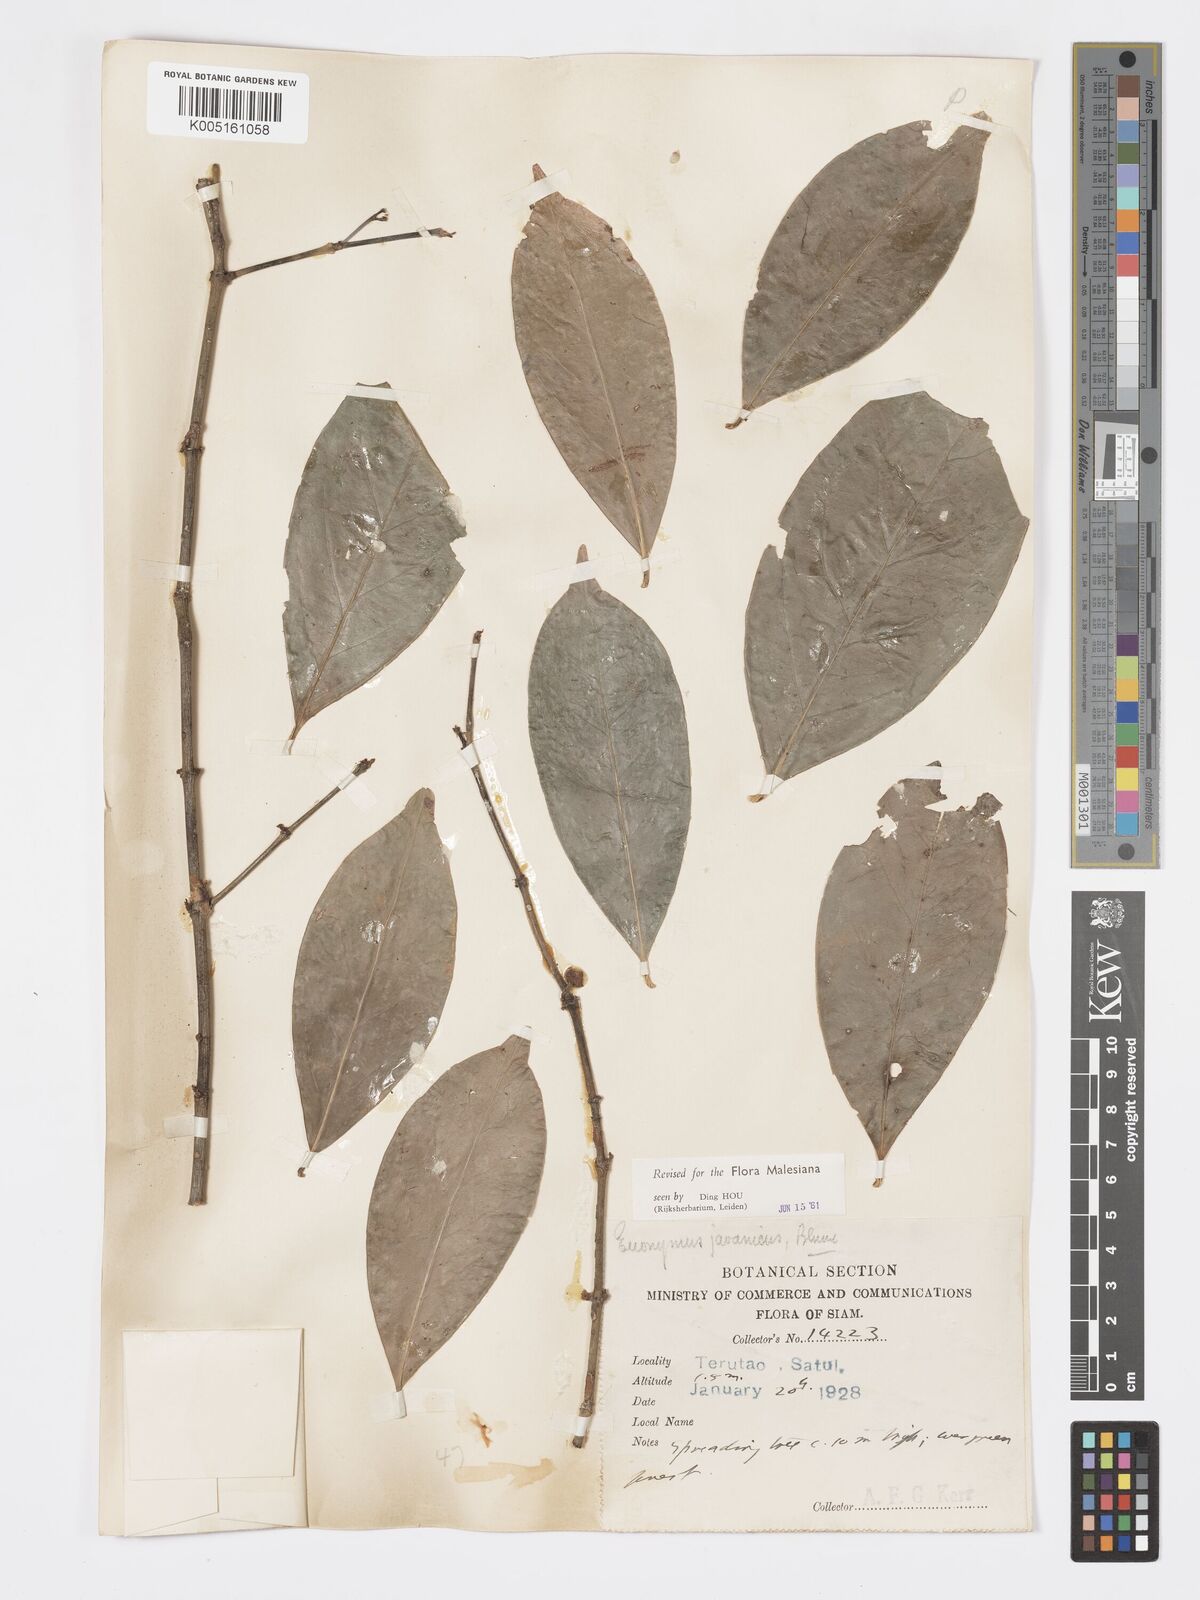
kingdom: Plantae
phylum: Tracheophyta
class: Magnoliopsida
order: Celastrales
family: Celastraceae
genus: Euonymus
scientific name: Euonymus indicus
